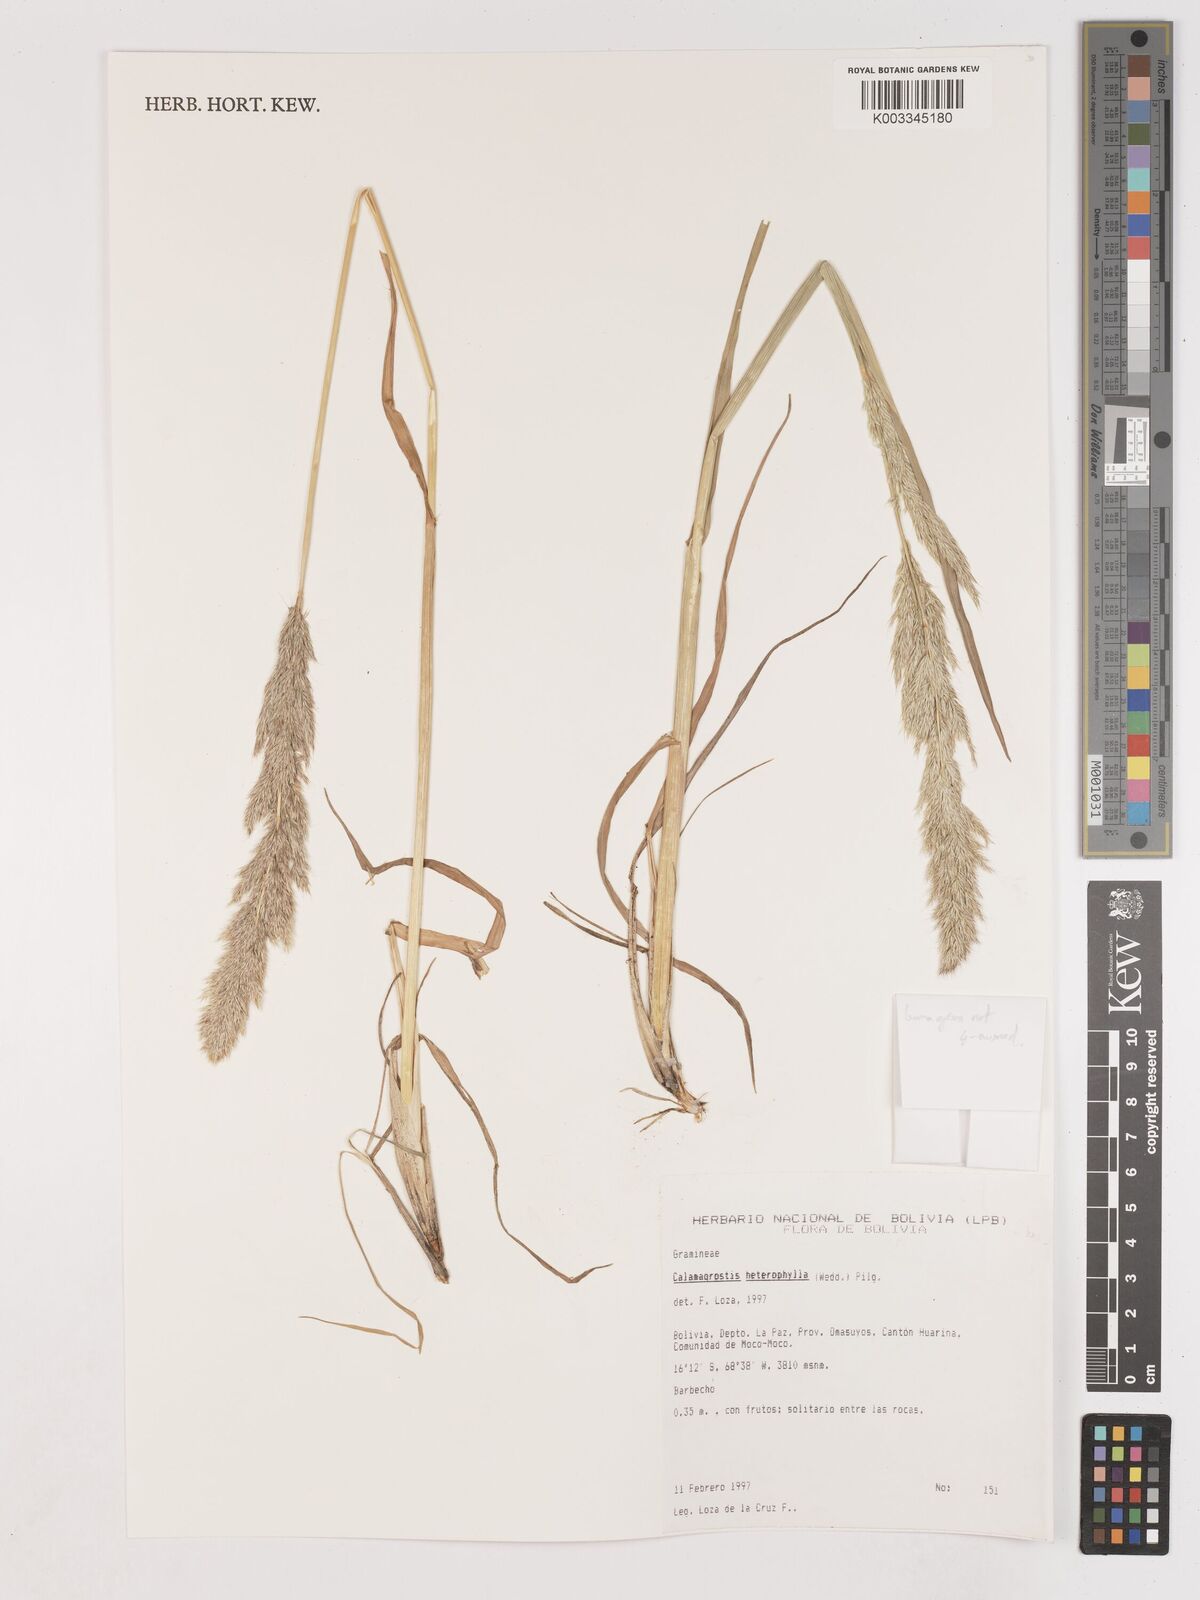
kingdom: Plantae
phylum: Tracheophyta
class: Liliopsida
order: Poales
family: Poaceae
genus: Calamagrostis
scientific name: Calamagrostis
